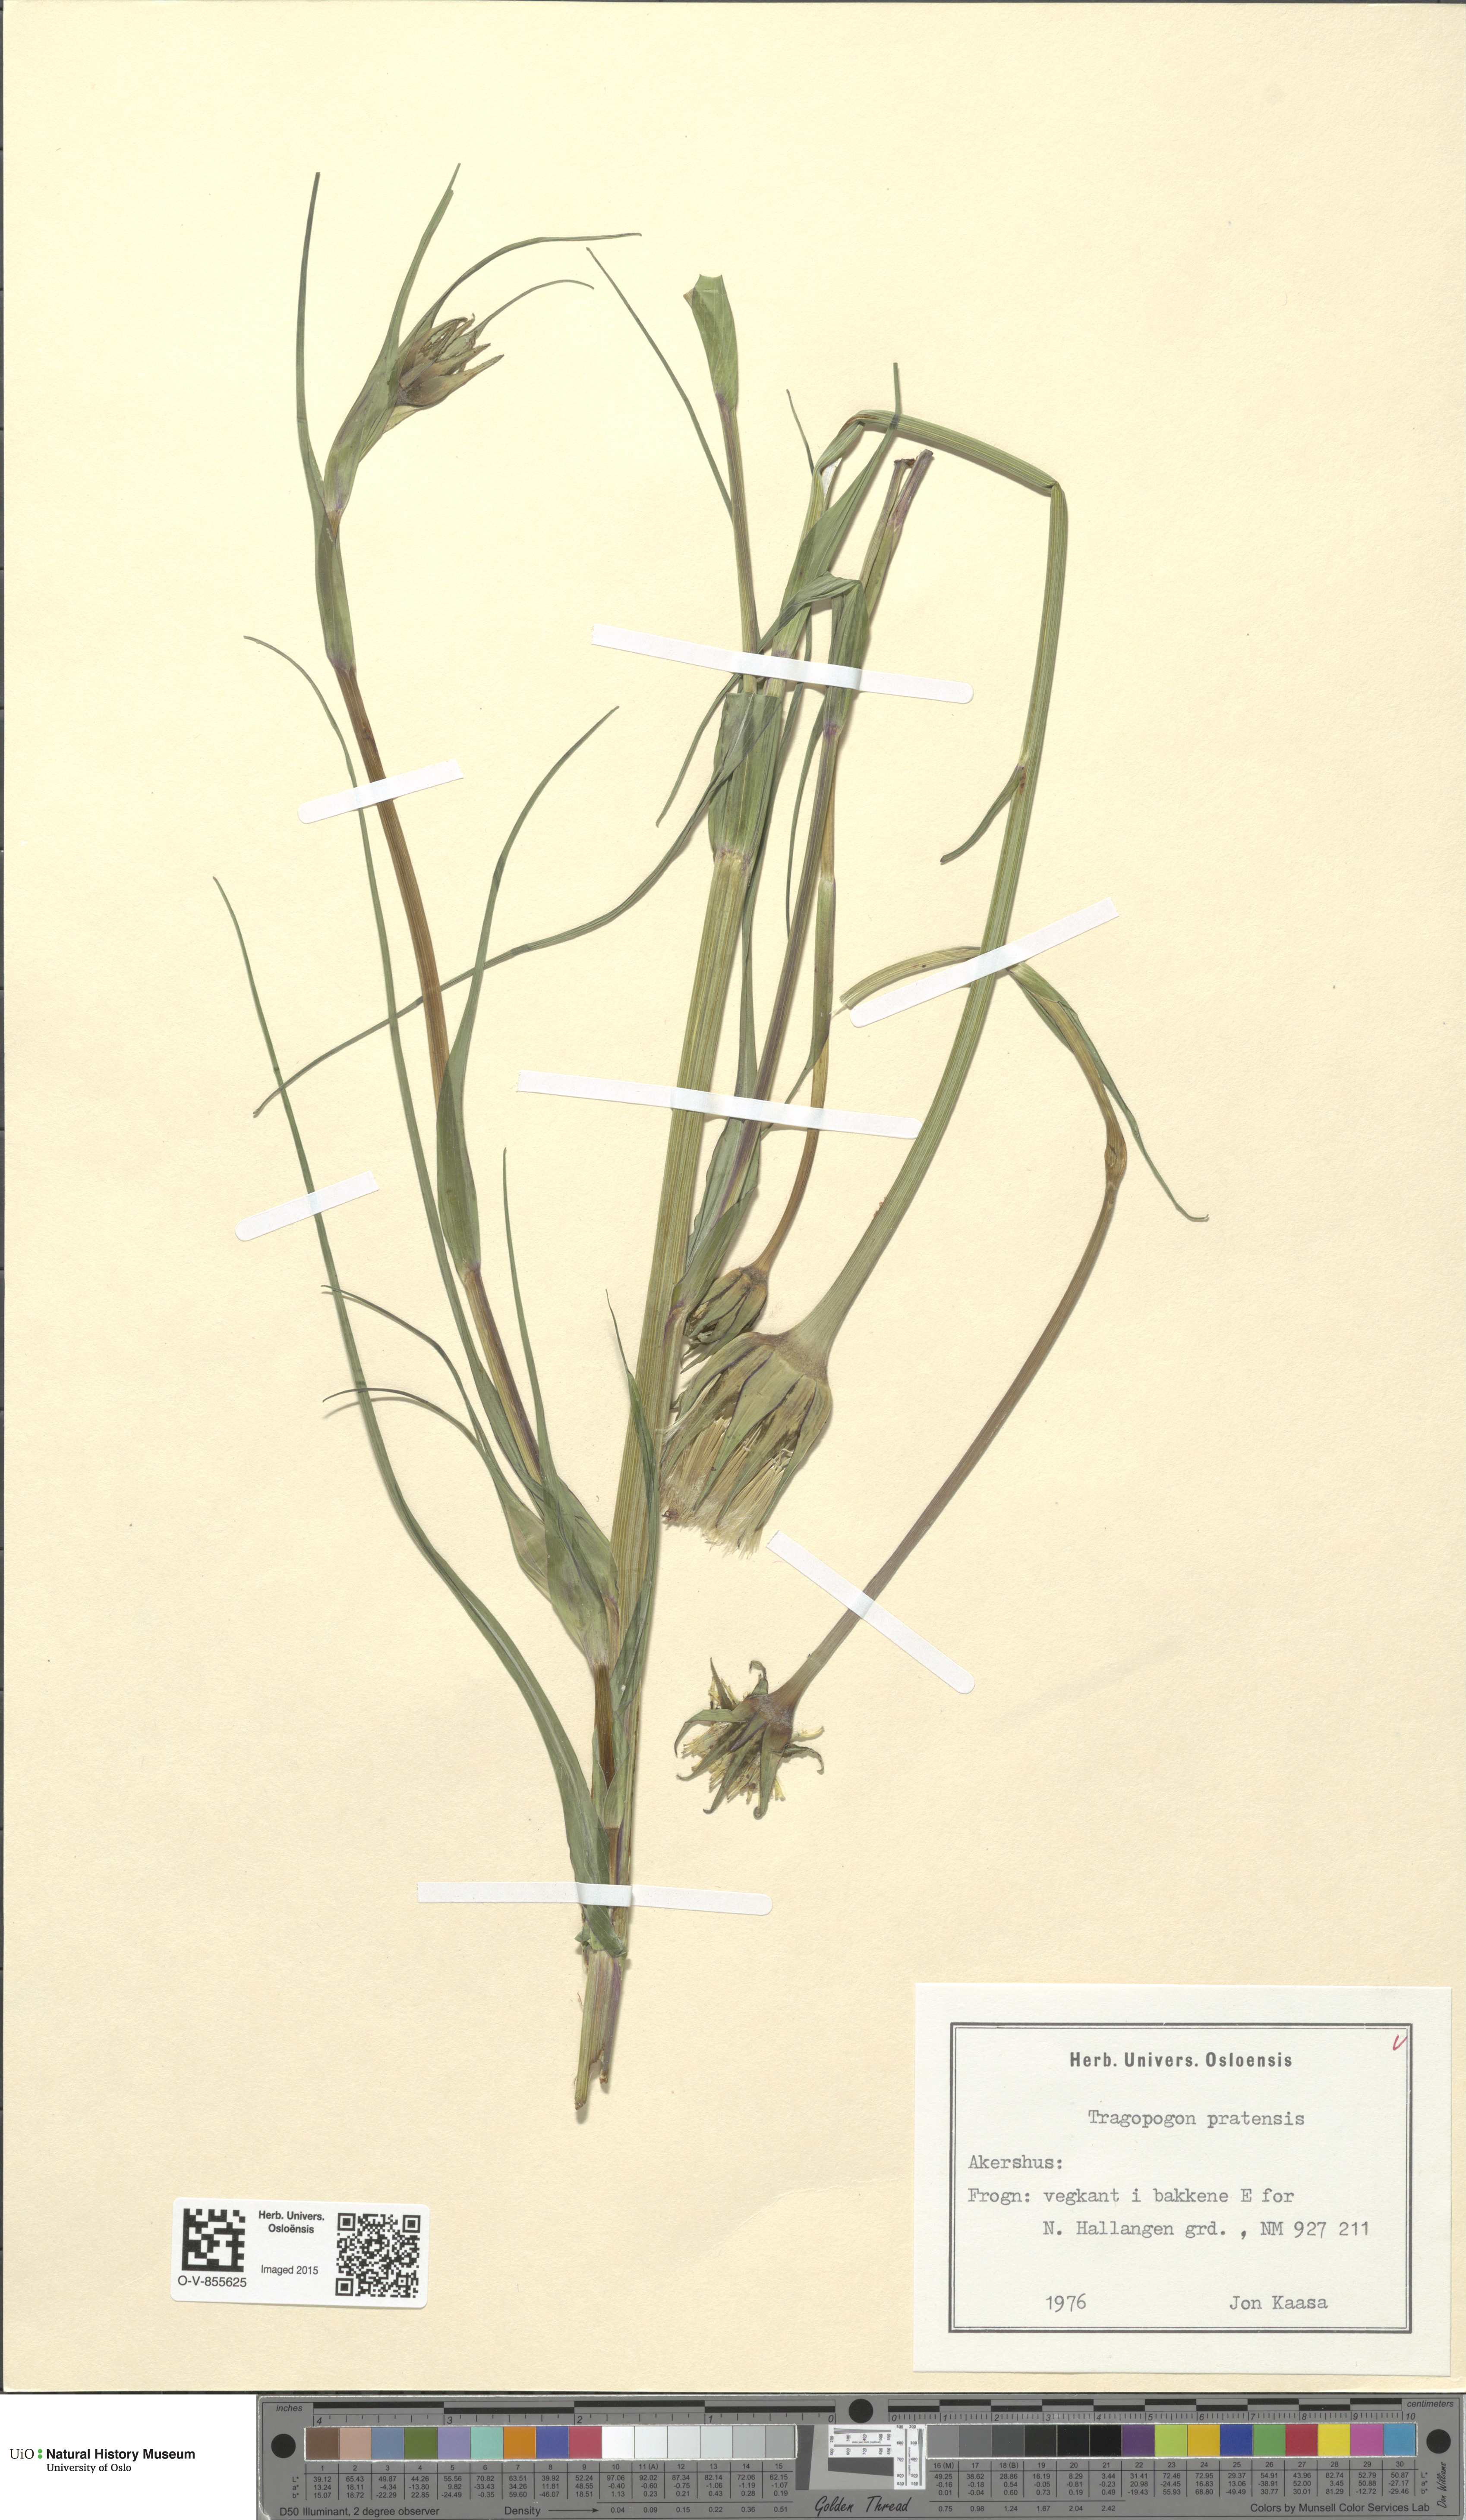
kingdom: Plantae
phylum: Tracheophyta
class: Magnoliopsida
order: Asterales
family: Asteraceae
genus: Tragopogon
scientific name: Tragopogon pratensis
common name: Goat's-beard
